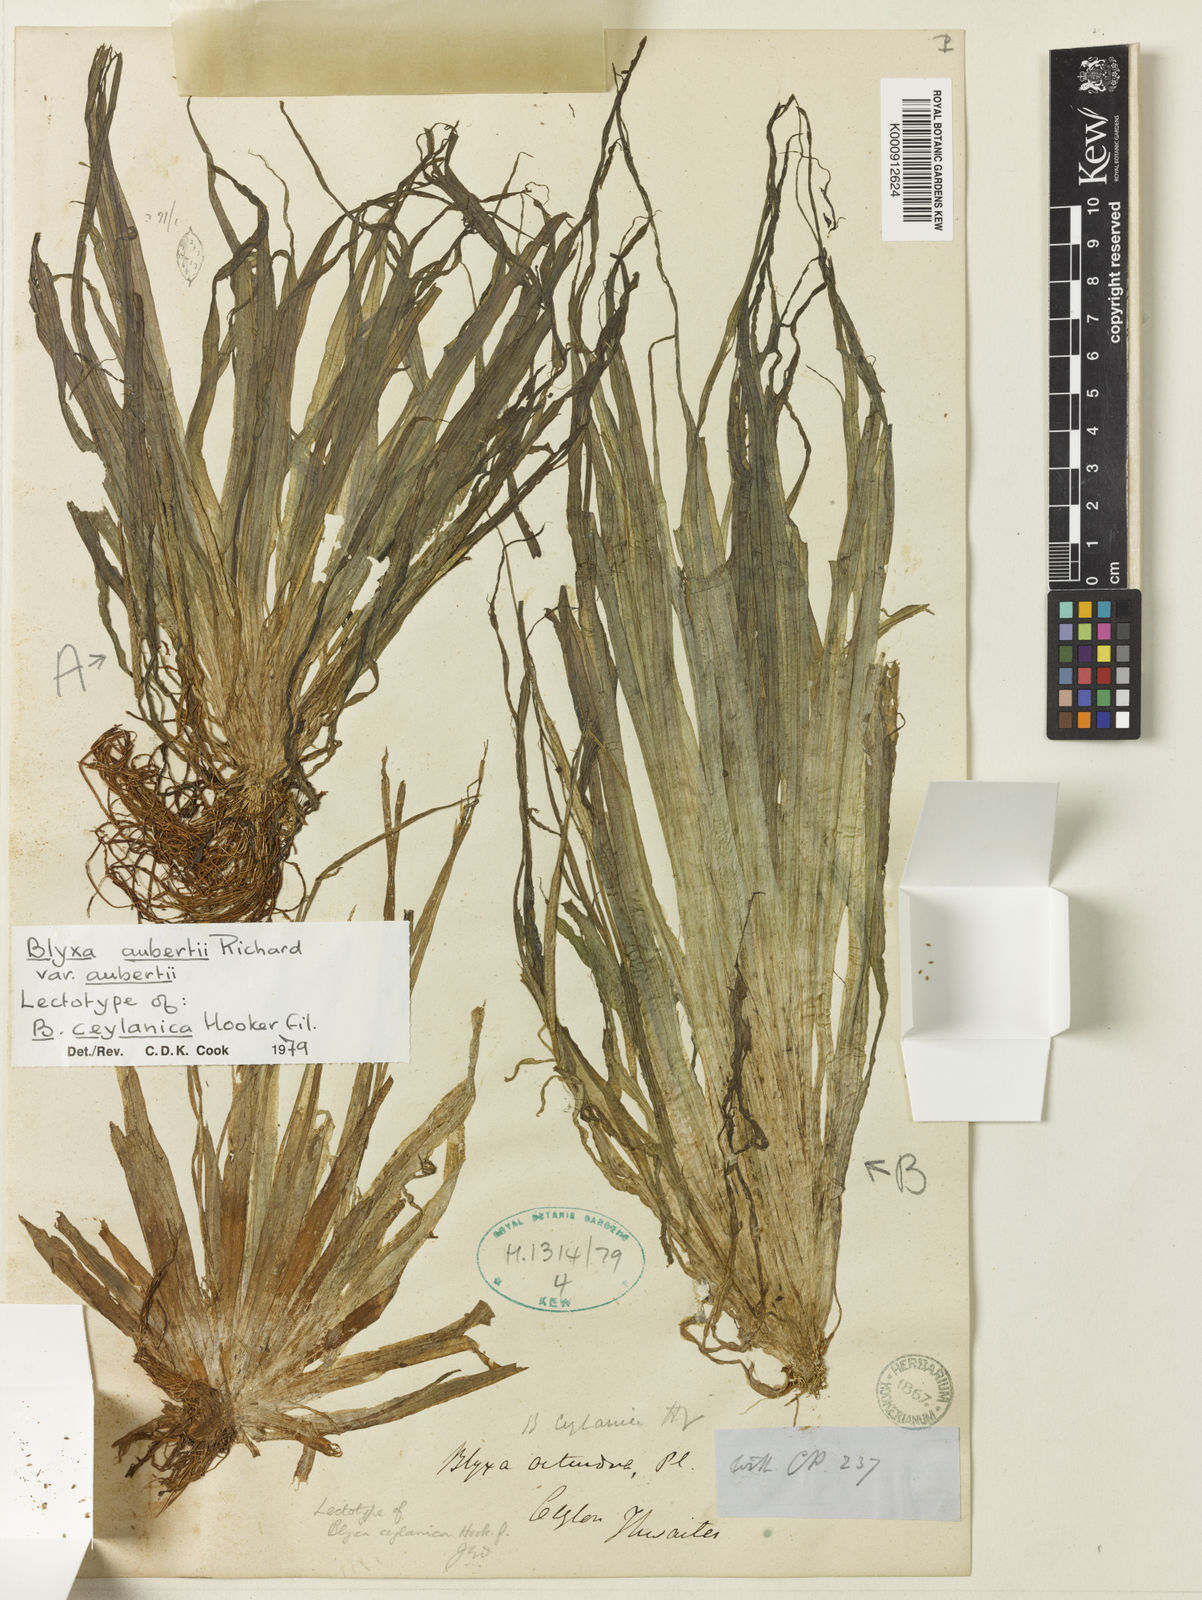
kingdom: Plantae
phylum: Tracheophyta
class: Liliopsida
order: Alismatales
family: Hydrocharitaceae
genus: Blyxa
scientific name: Blyxa aubertii
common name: Roundfruit blyxa
